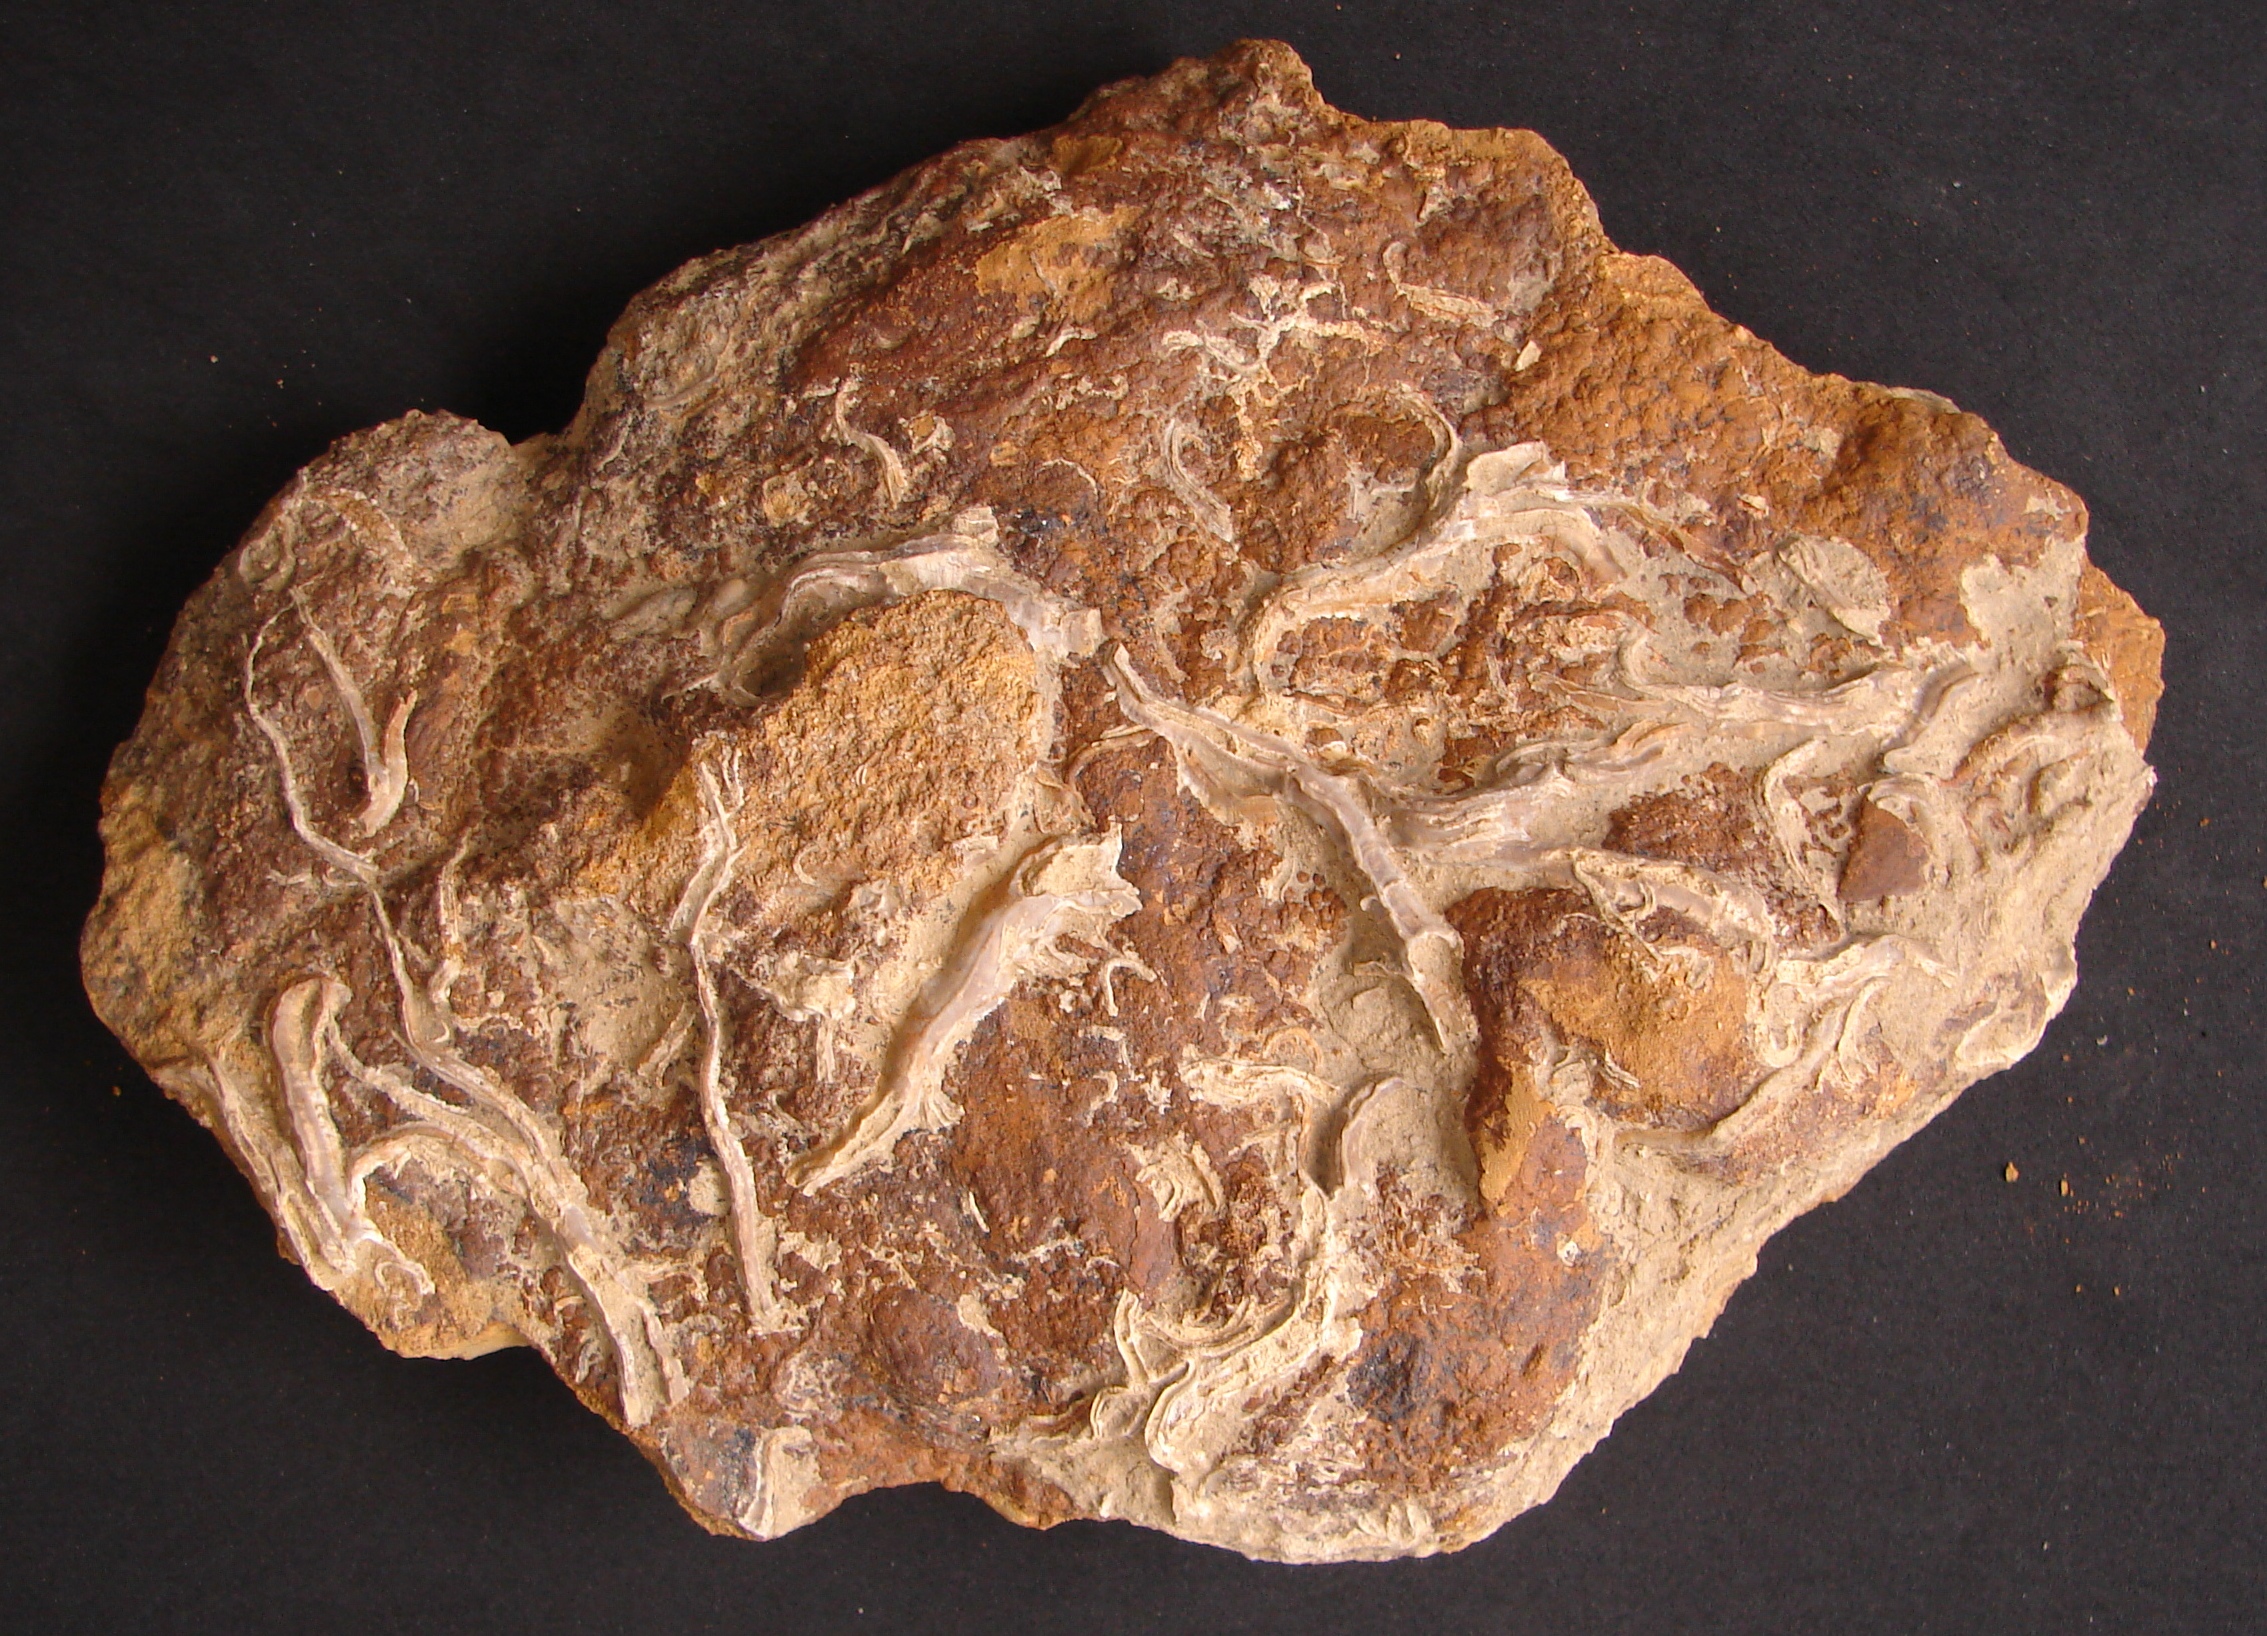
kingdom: Animalia
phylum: Annelida
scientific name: Annelida
